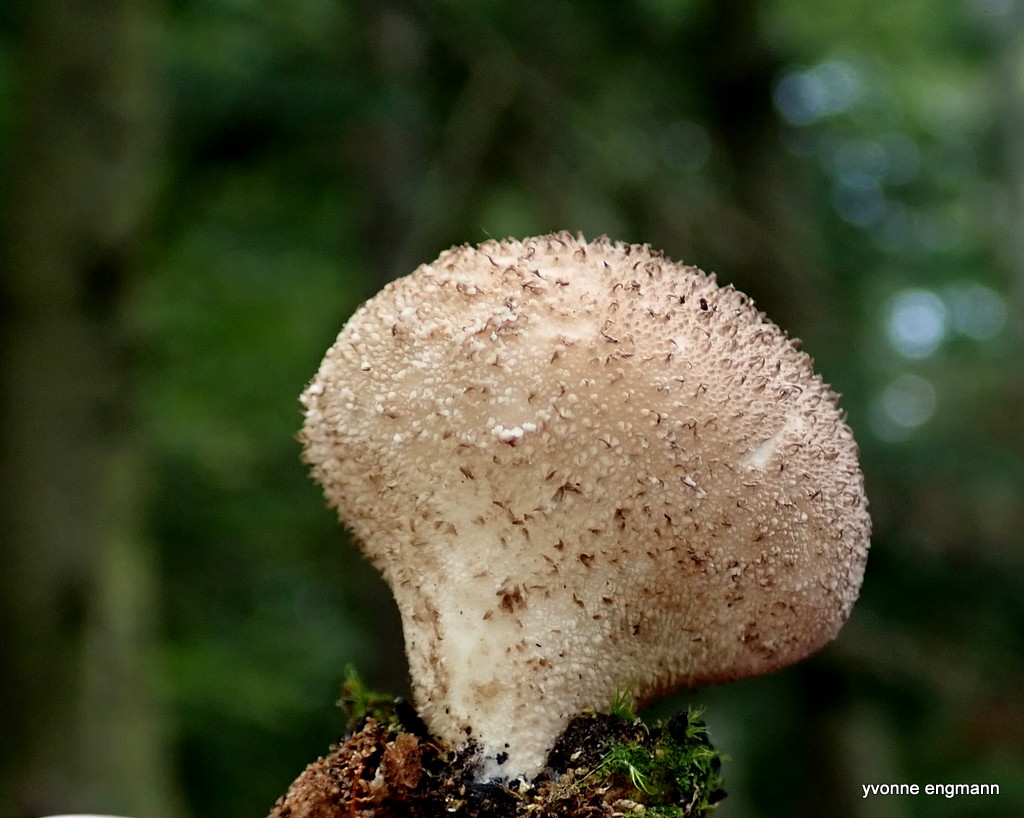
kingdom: Fungi
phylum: Basidiomycota
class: Agaricomycetes
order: Agaricales
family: Lycoperdaceae
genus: Lycoperdon
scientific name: Lycoperdon nigrescens
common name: sortagtig støvbold
